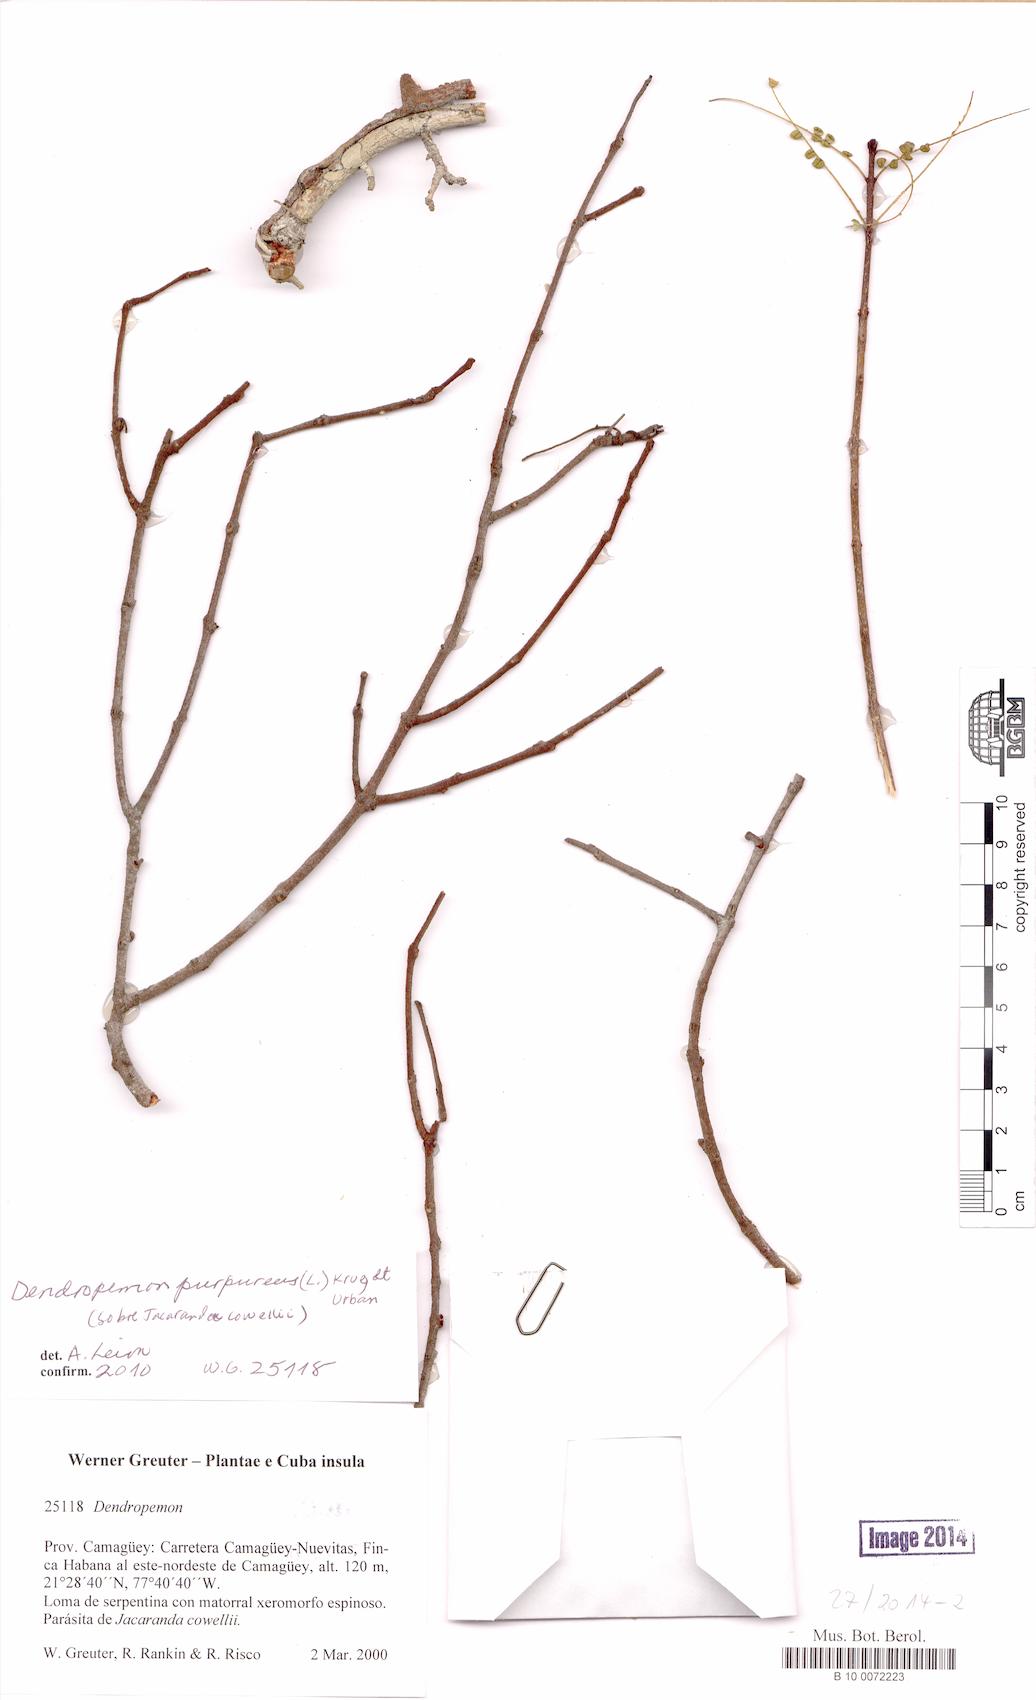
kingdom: Plantae
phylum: Tracheophyta
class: Magnoliopsida
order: Santalales
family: Loranthaceae
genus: Dendropemon
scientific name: Dendropemon purpureus
